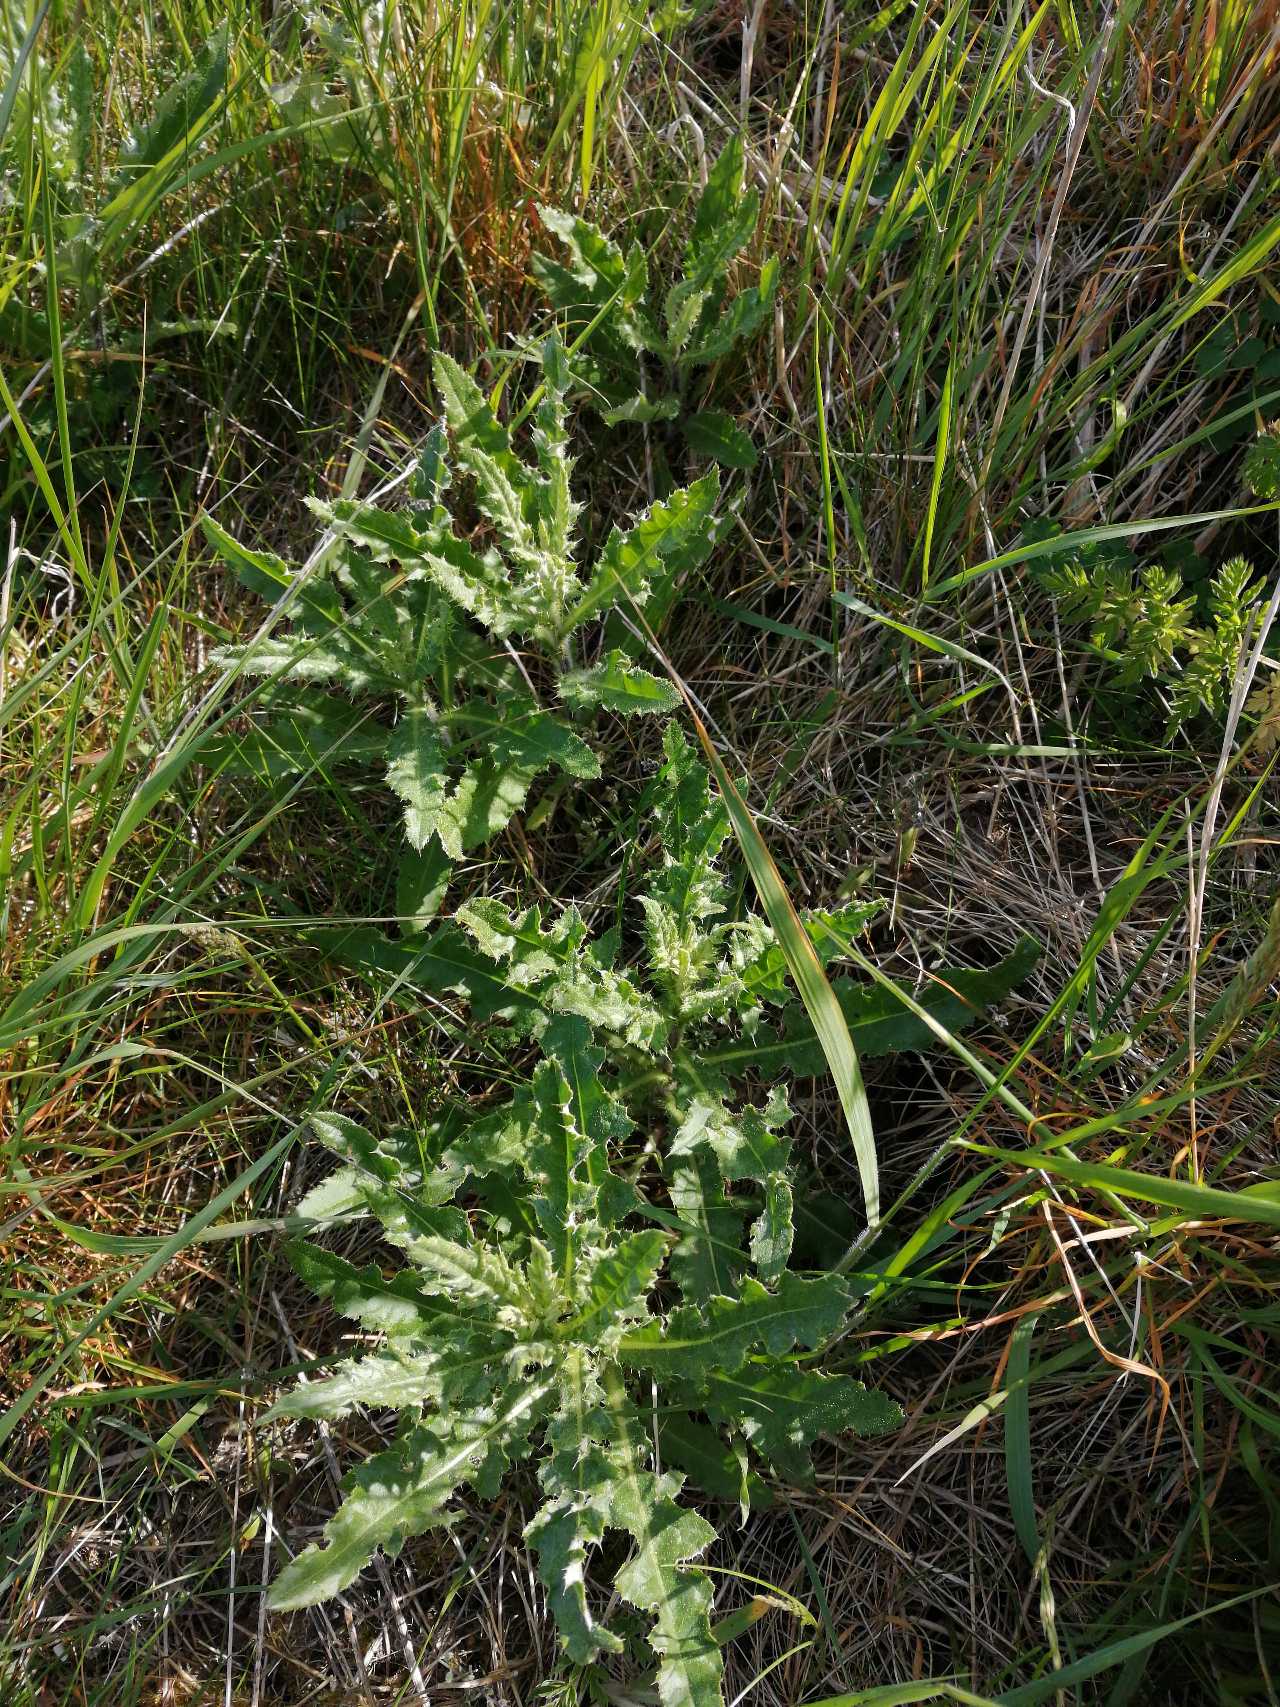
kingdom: Plantae
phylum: Tracheophyta
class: Magnoliopsida
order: Asterales
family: Asteraceae
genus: Cirsium
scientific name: Cirsium arvense
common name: Ager-tidsel
